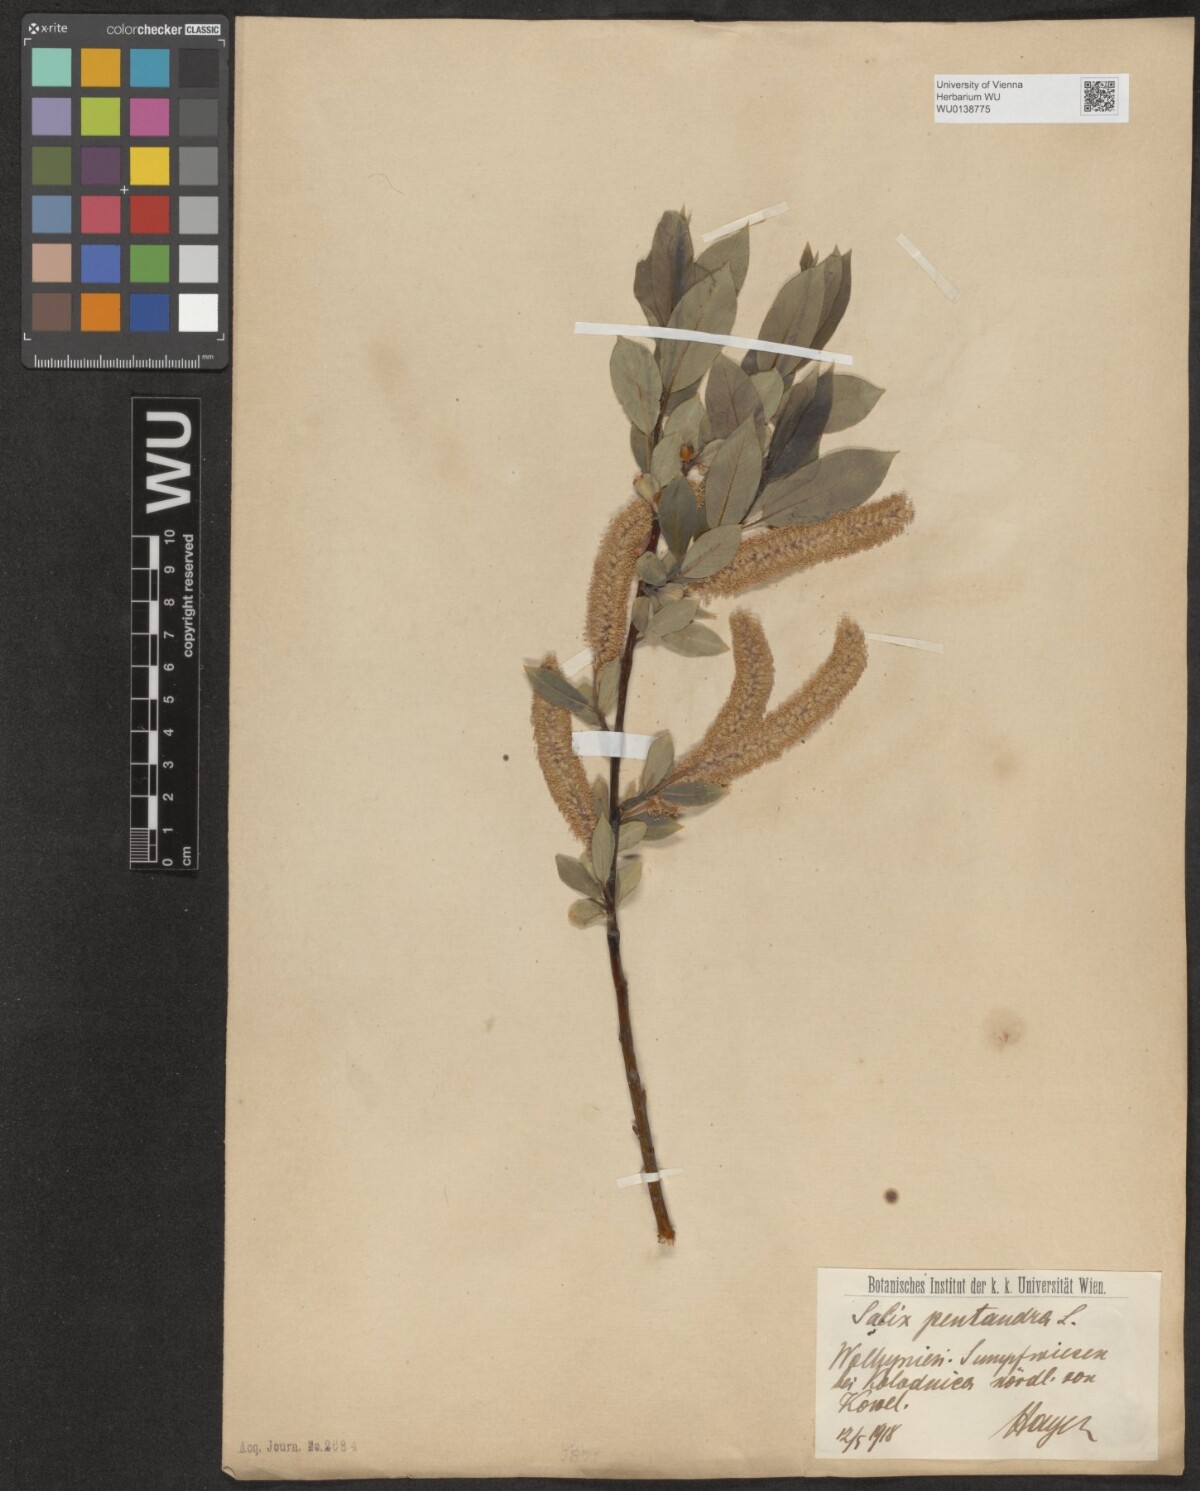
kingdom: Plantae
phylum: Tracheophyta
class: Magnoliopsida
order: Malpighiales
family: Salicaceae
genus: Salix
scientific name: Salix pentandra
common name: Bay willow
